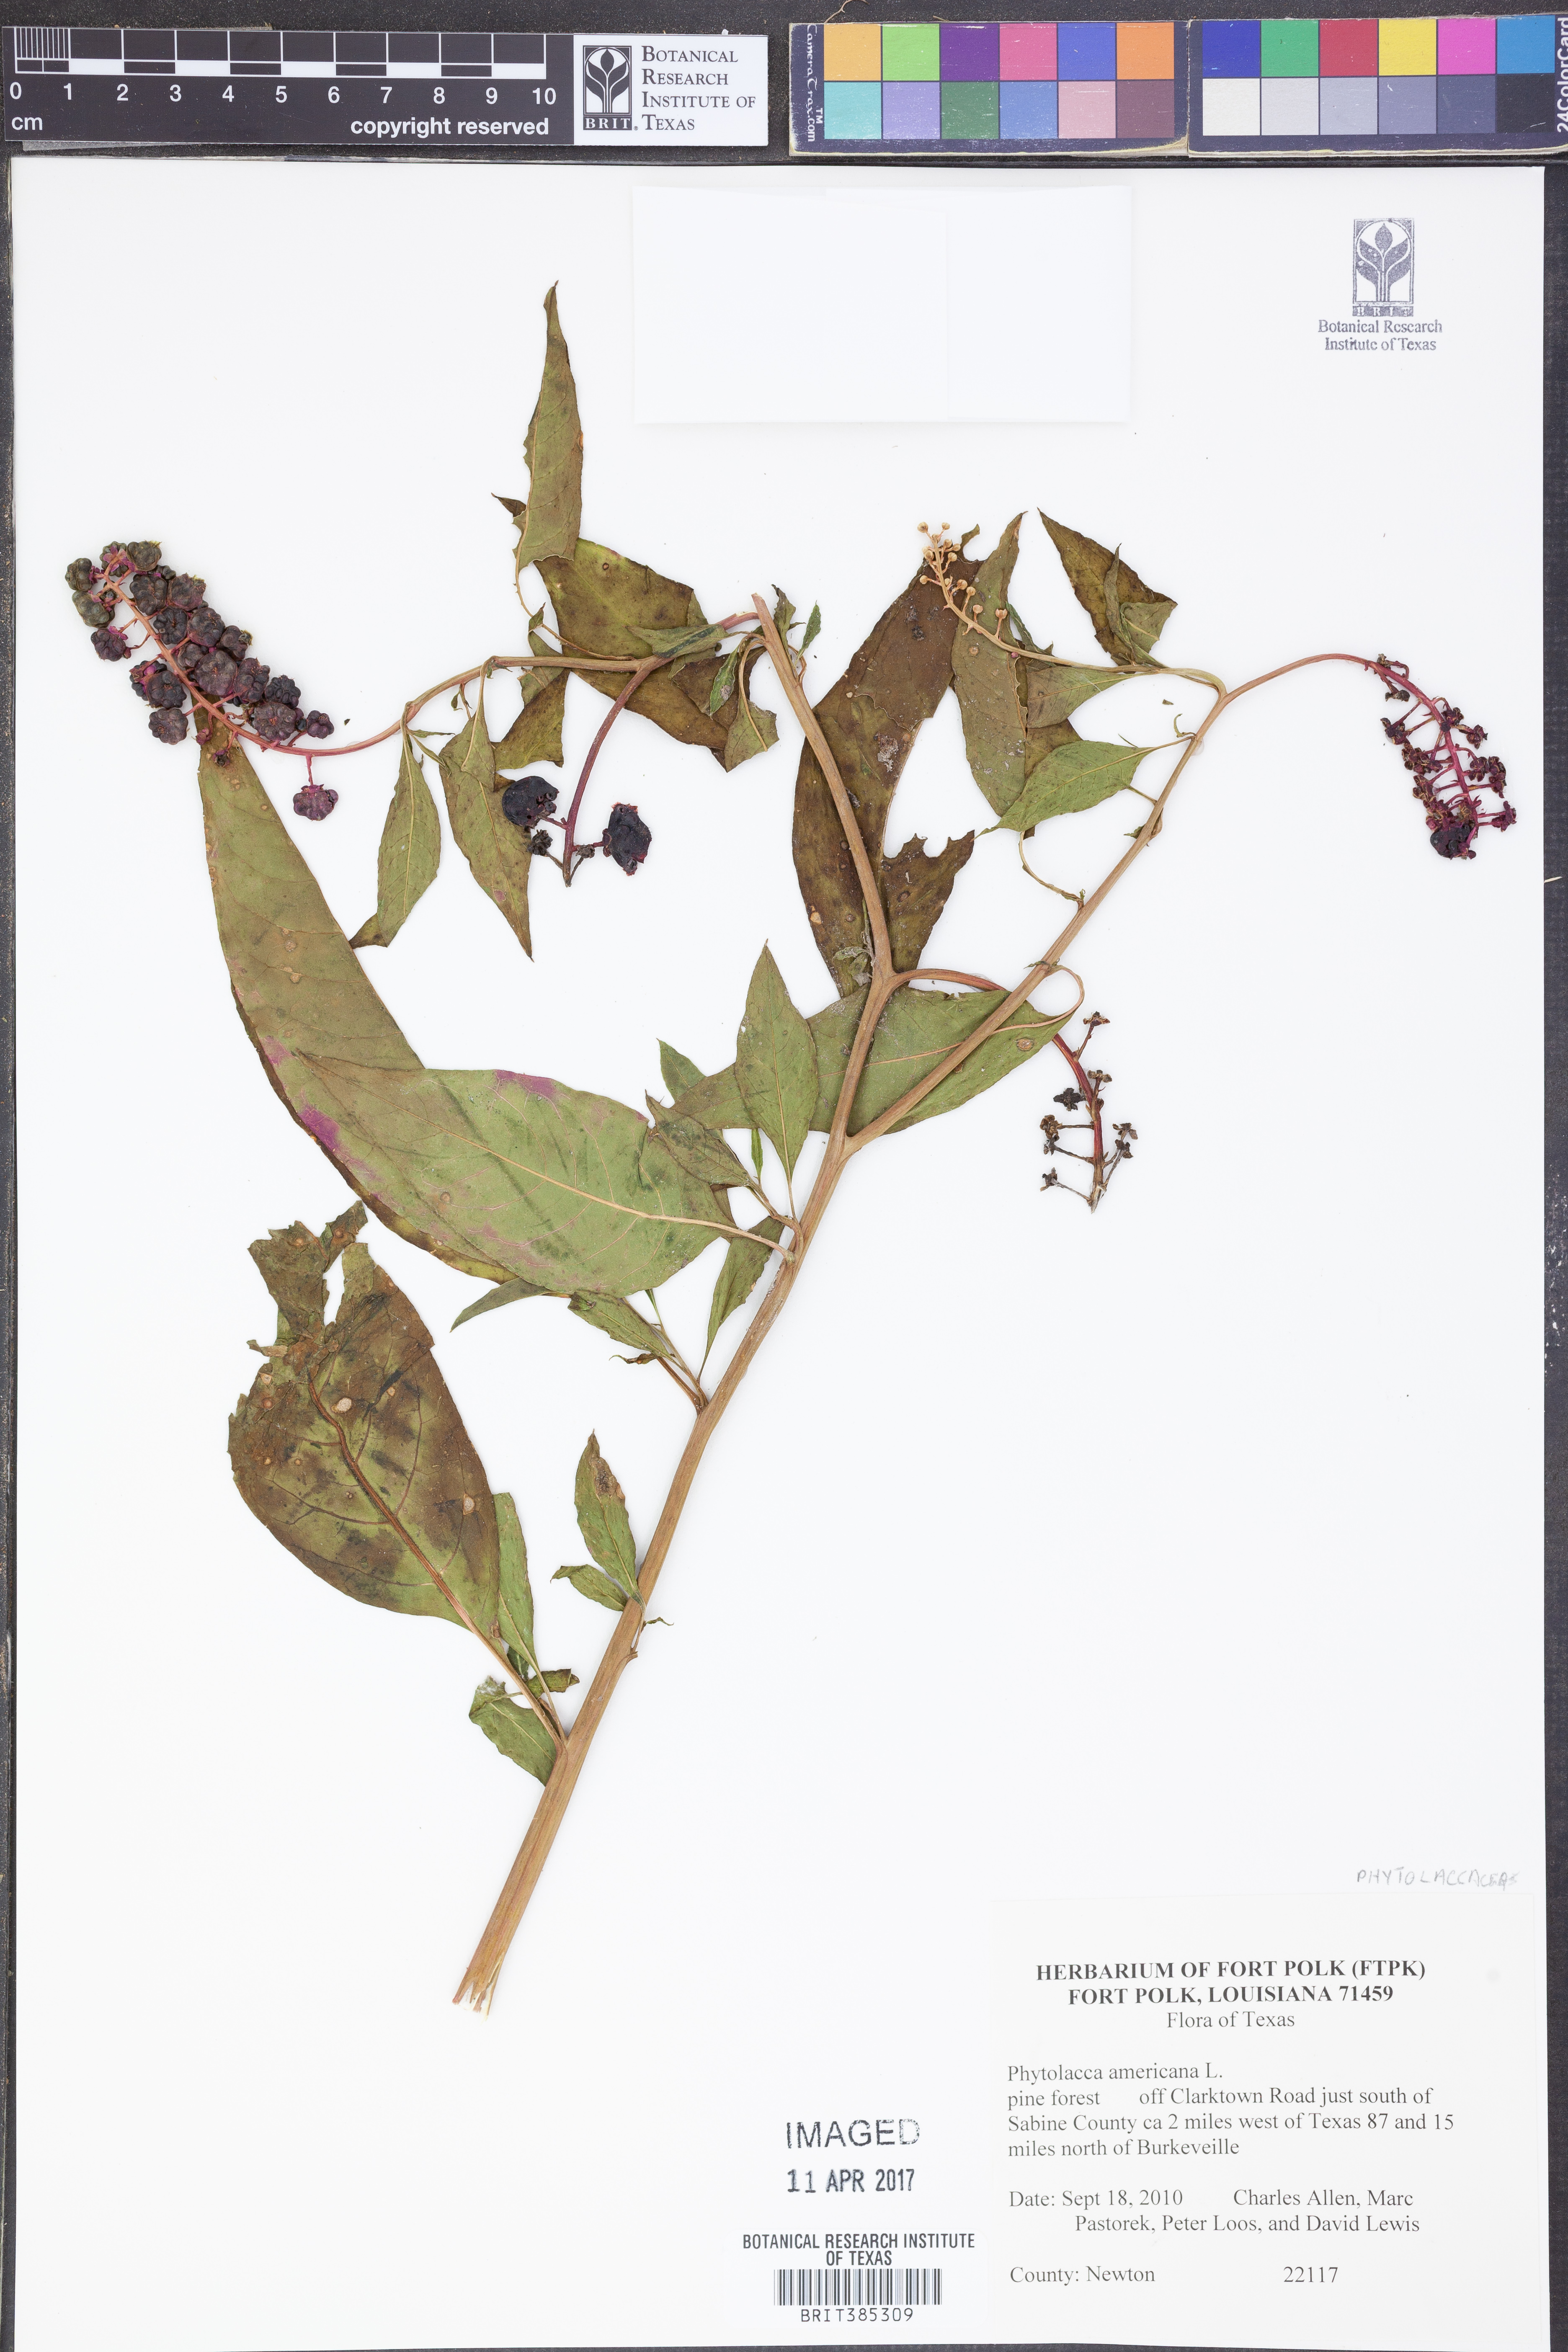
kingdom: Plantae
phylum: Tracheophyta
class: Magnoliopsida
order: Caryophyllales
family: Phytolaccaceae
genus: Phytolacca
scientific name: Phytolacca americana
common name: American pokeweed
